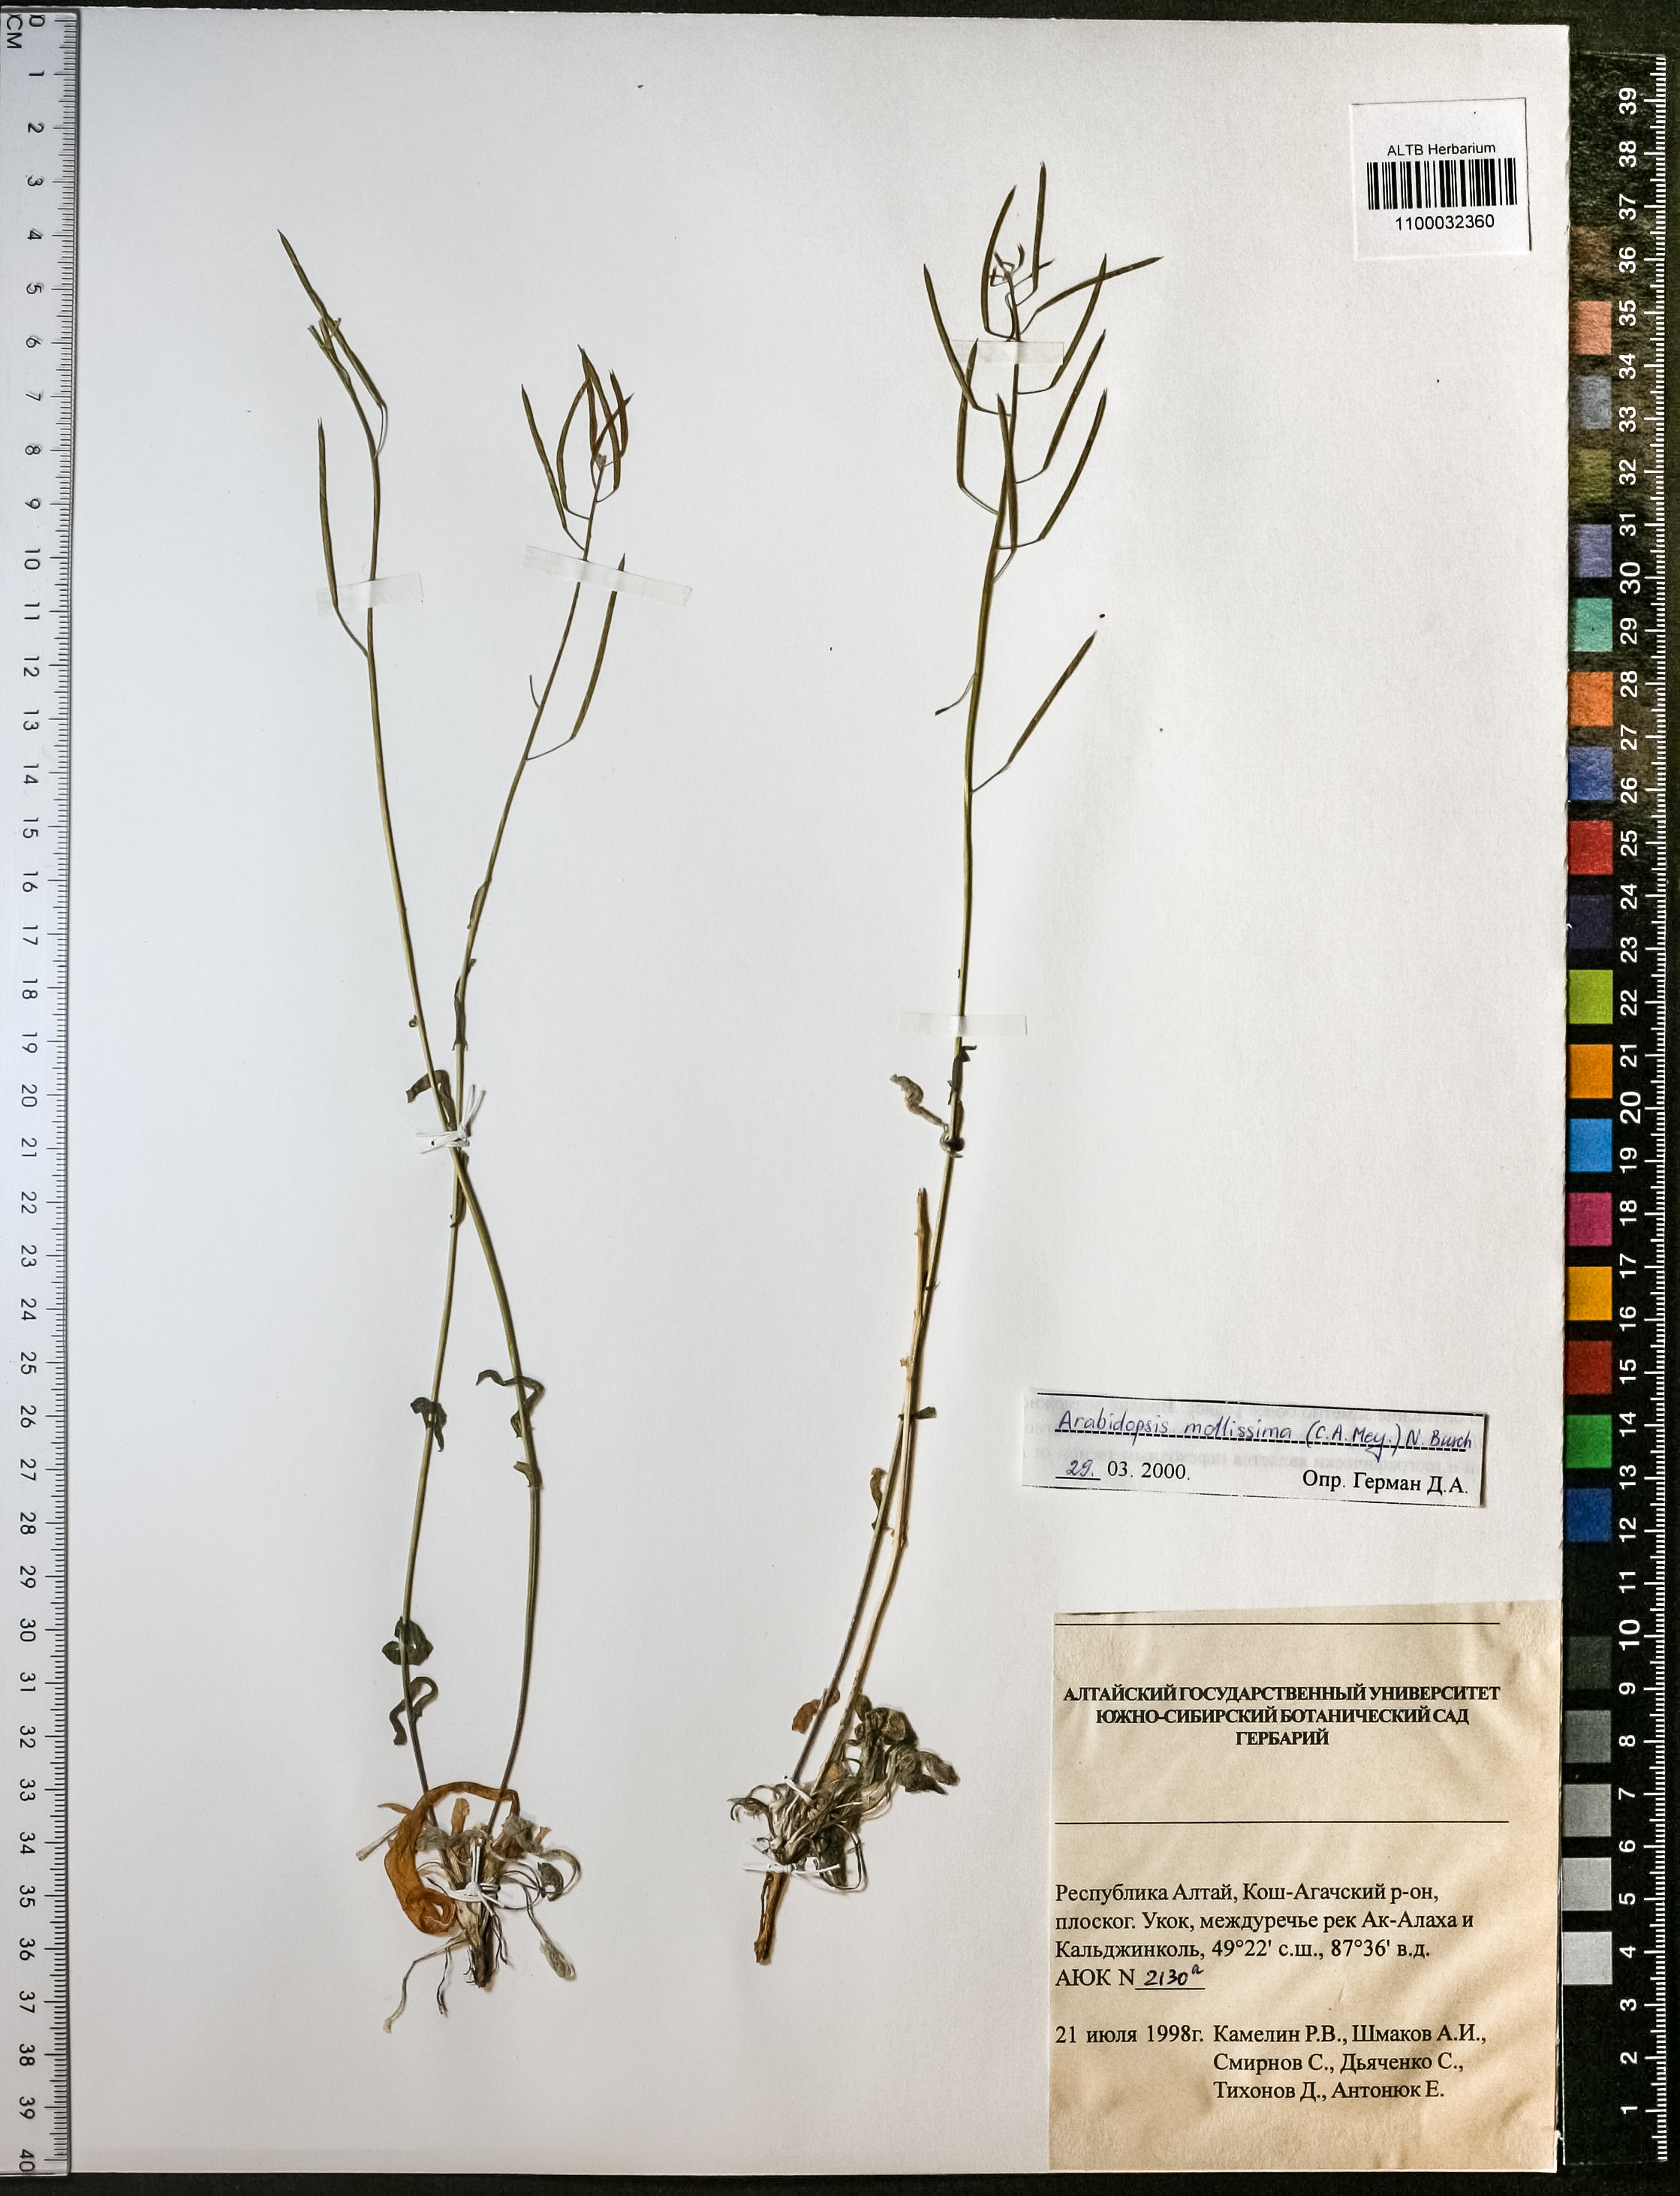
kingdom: Plantae
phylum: Tracheophyta
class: Magnoliopsida
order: Brassicales
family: Brassicaceae
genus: Crucihimalaya
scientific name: Crucihimalaya mollissima
